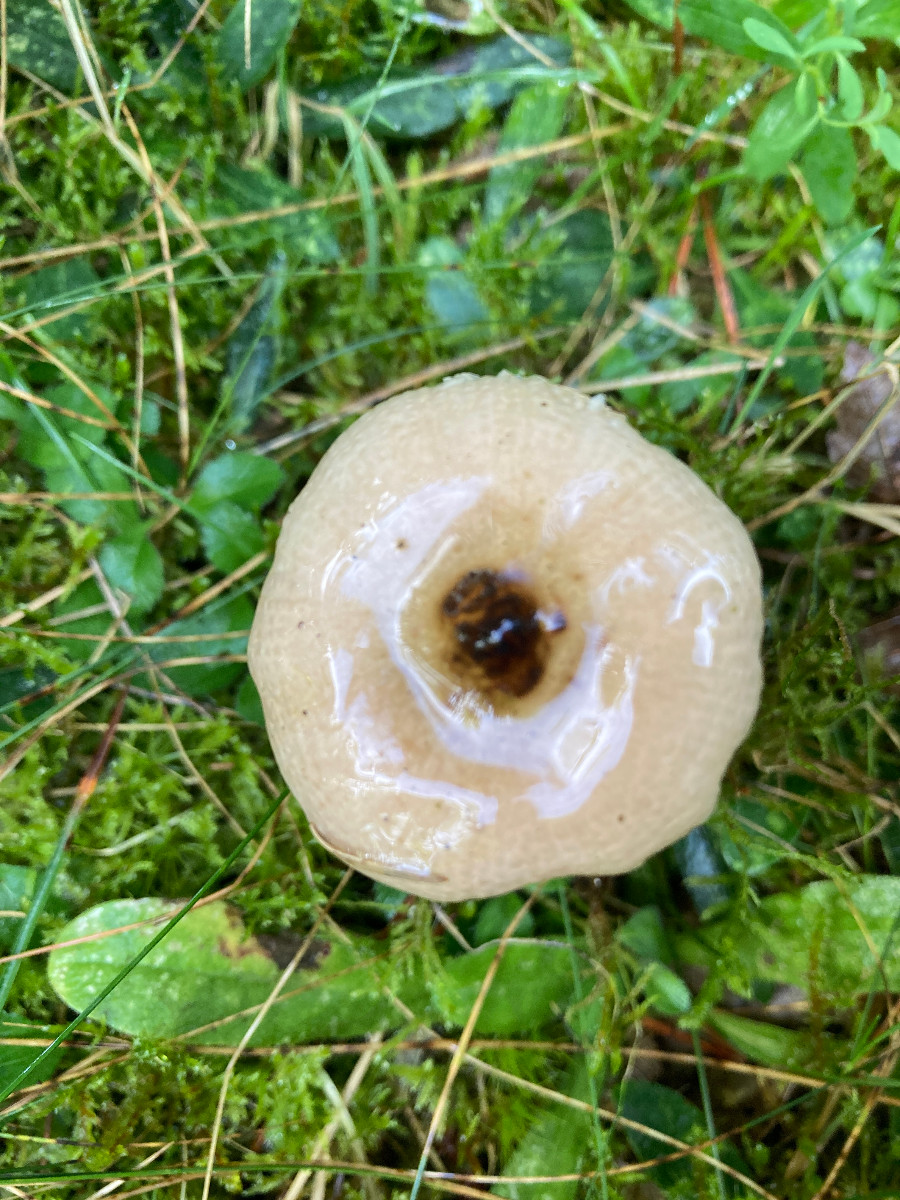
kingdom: Fungi
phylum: Basidiomycota
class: Agaricomycetes
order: Russulales
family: Russulaceae
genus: Russula
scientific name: Russula nauseosa
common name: spinkel skørhat
